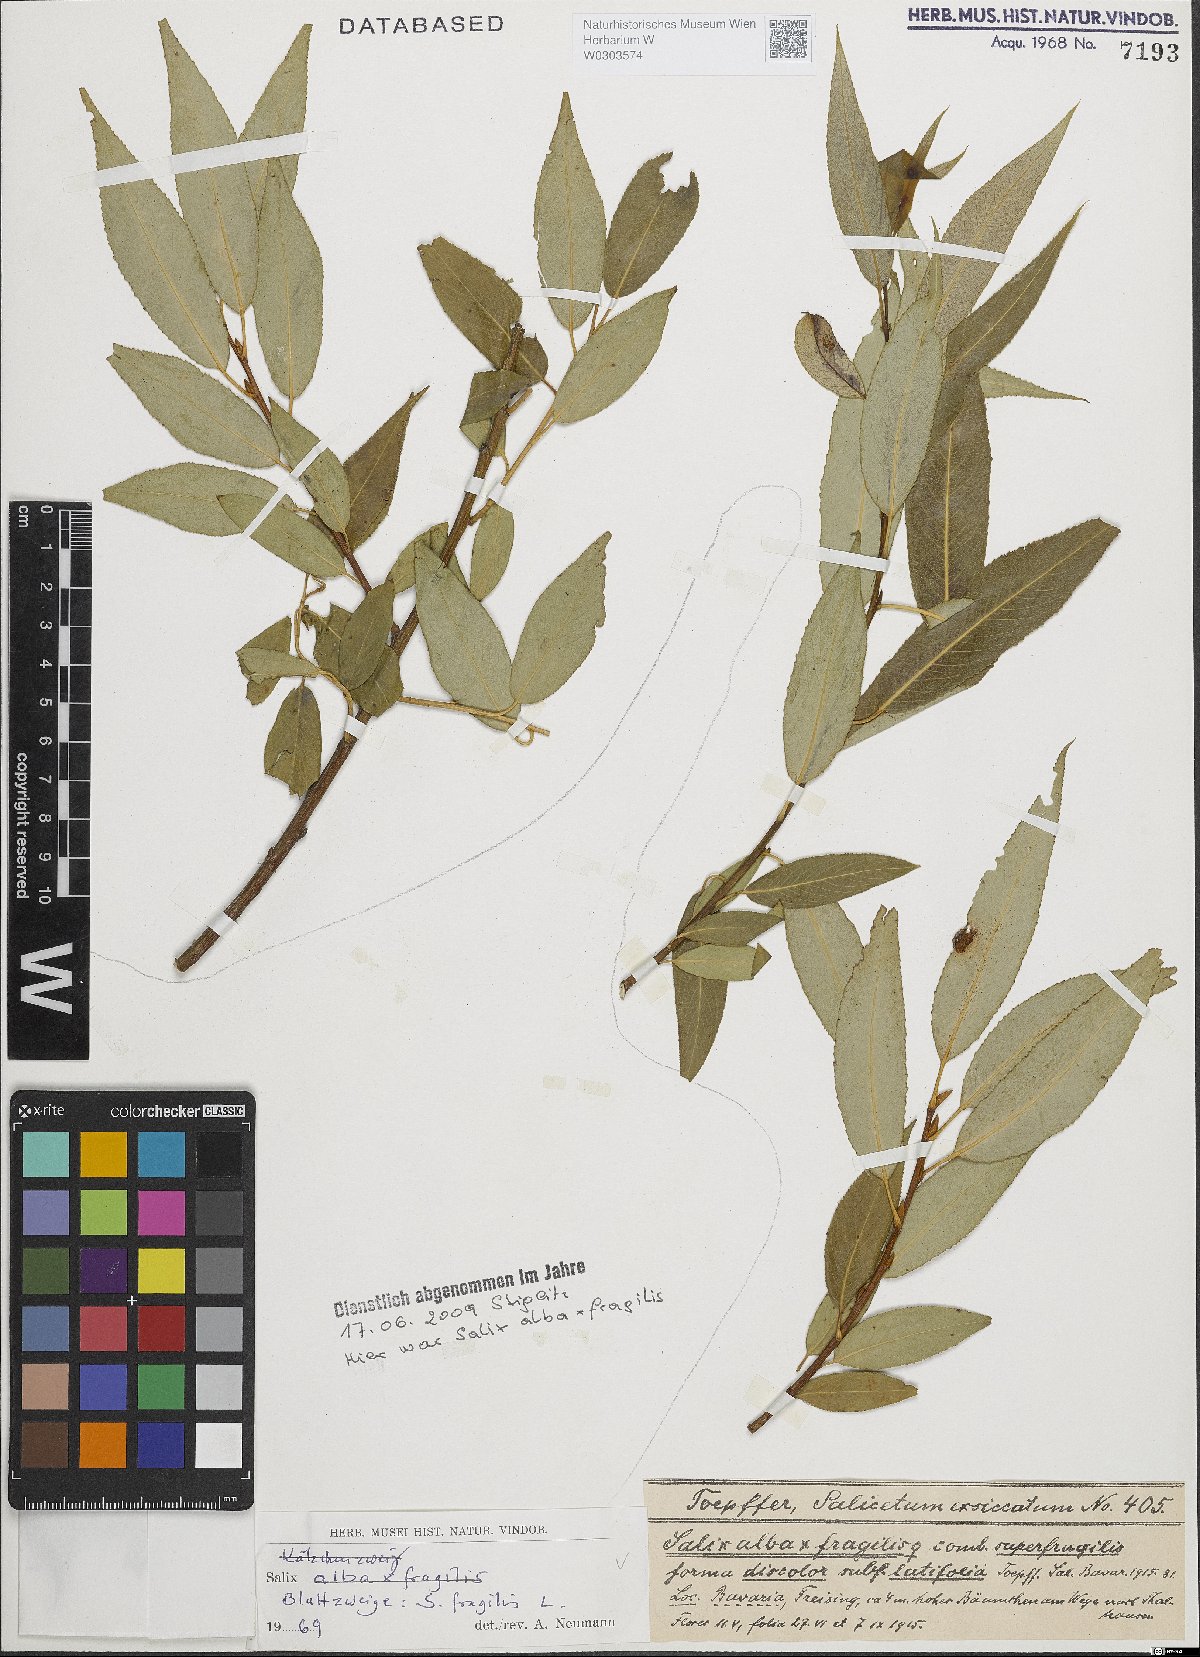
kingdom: Plantae
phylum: Tracheophyta
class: Magnoliopsida
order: Malpighiales
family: Salicaceae
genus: Salix
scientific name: Salix fragilis
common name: Crack willow
